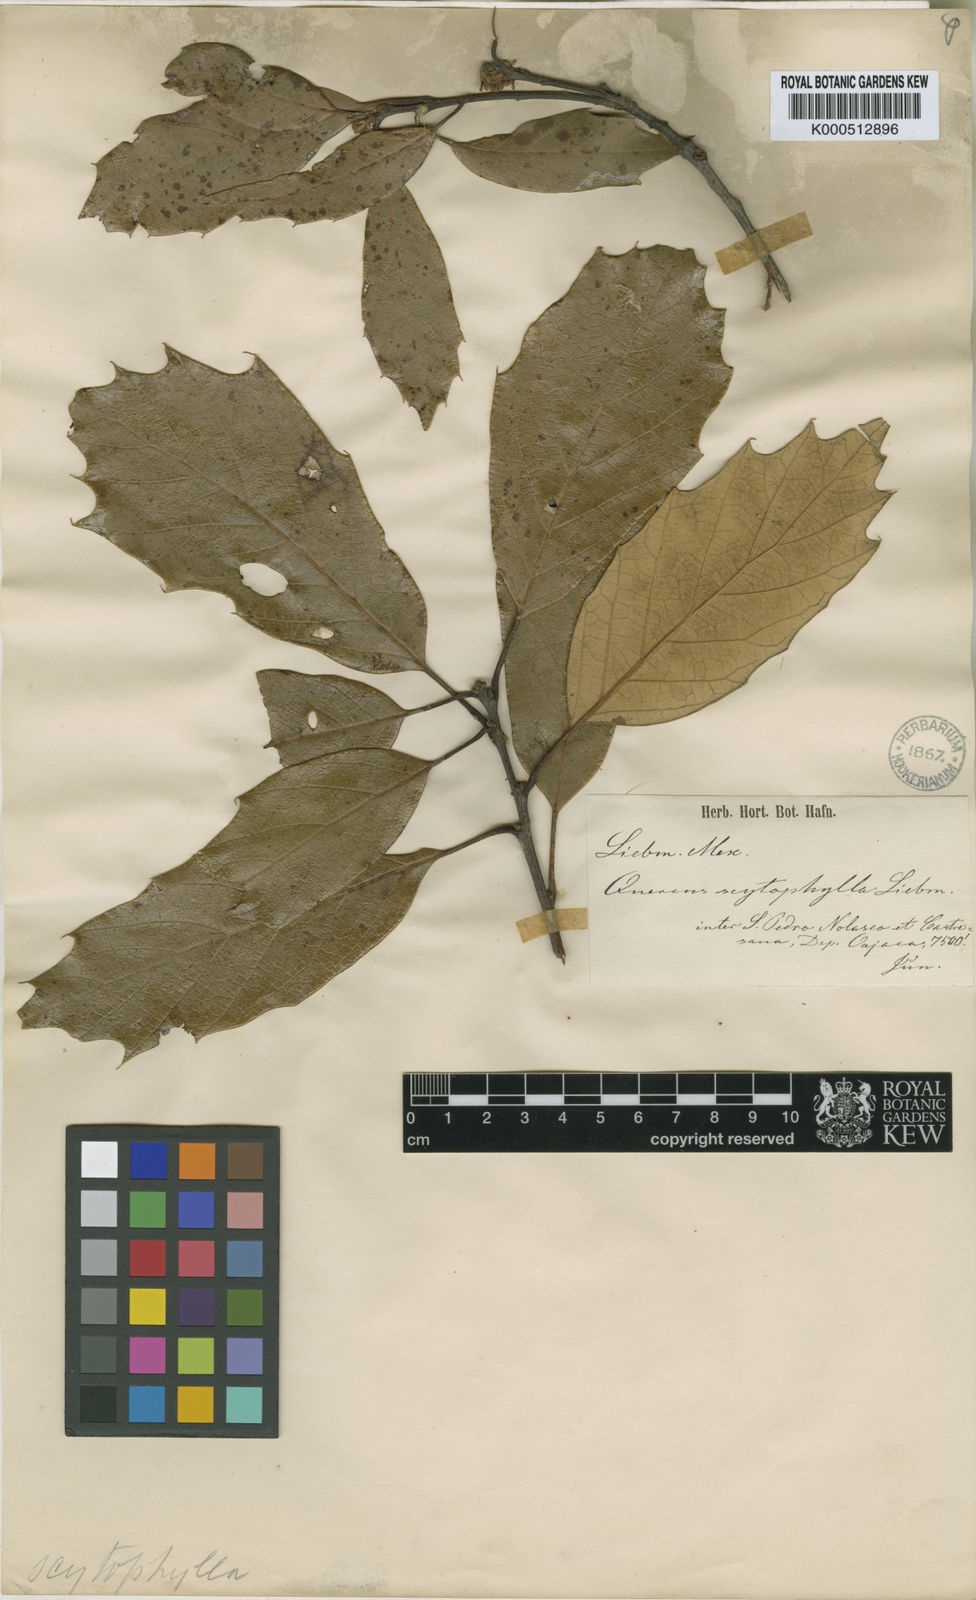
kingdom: Plantae
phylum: Tracheophyta
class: Magnoliopsida
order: Fagales
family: Fagaceae
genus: Quercus
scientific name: Quercus scytophylla
